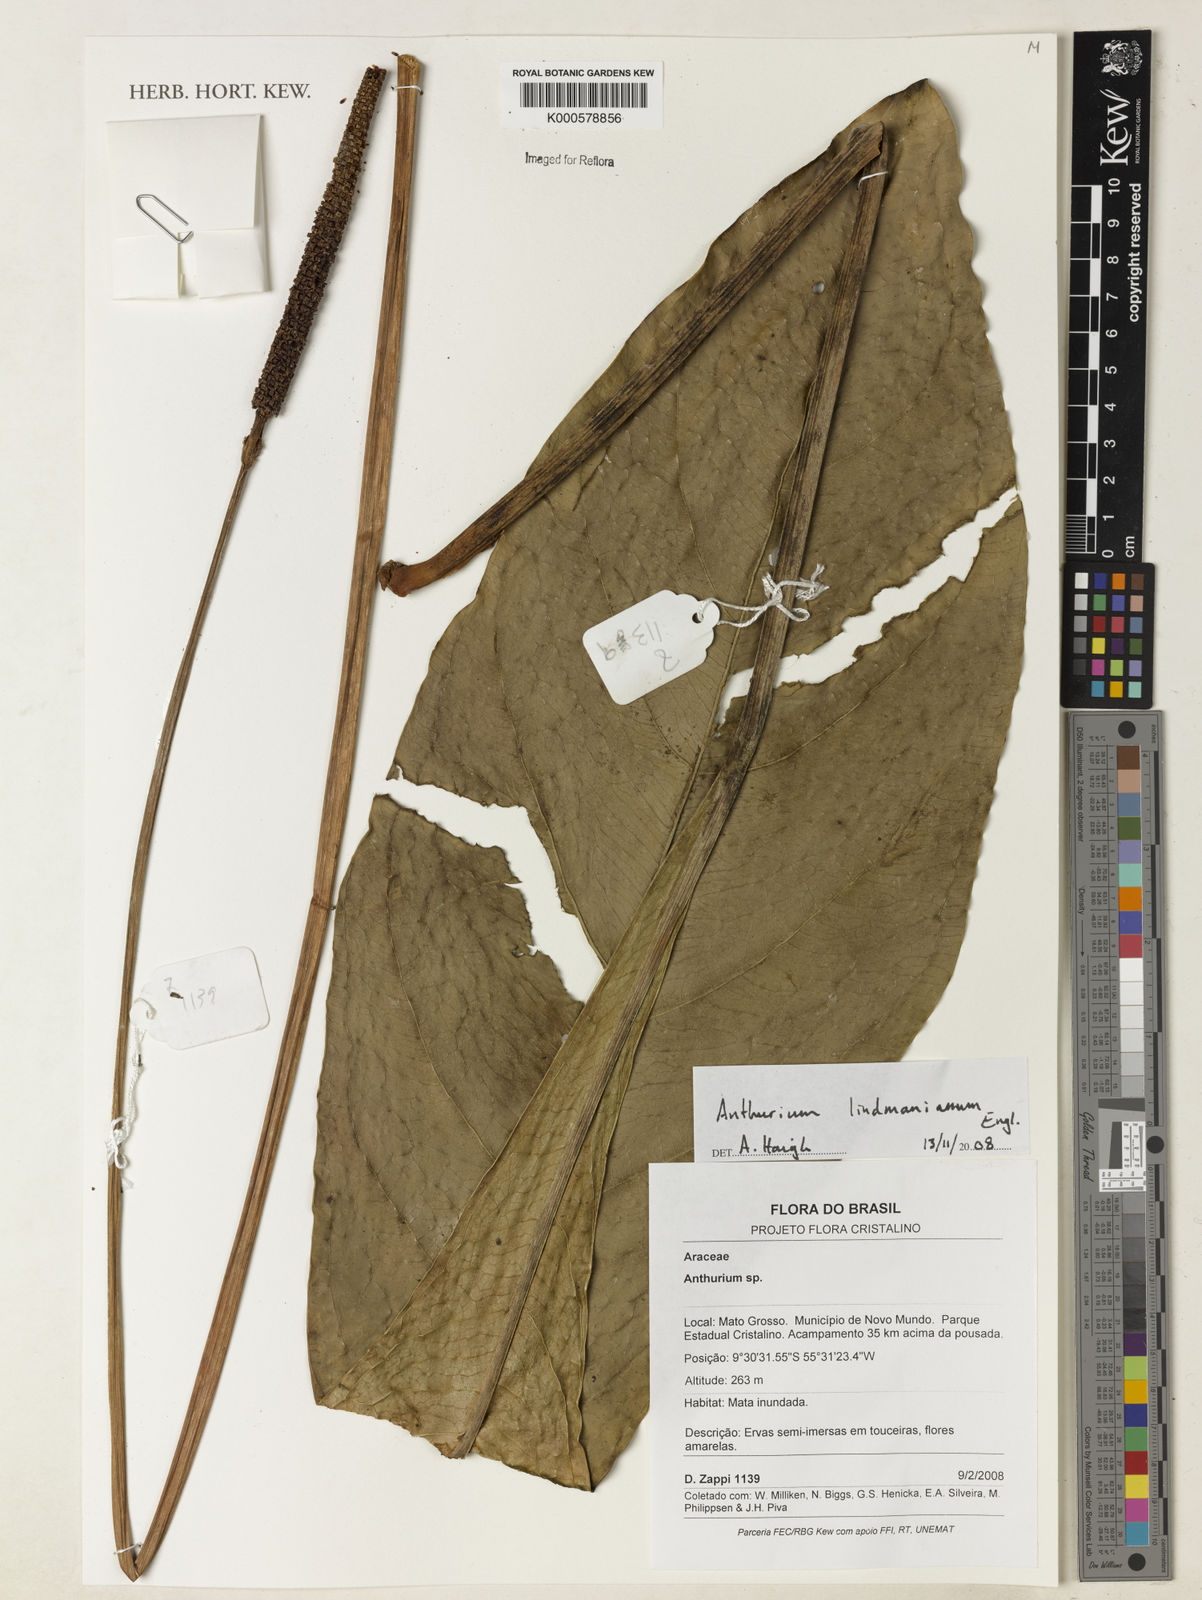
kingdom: Plantae
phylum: Tracheophyta
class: Liliopsida
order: Alismatales
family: Araceae
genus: Anthurium
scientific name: Anthurium lindmanianum
